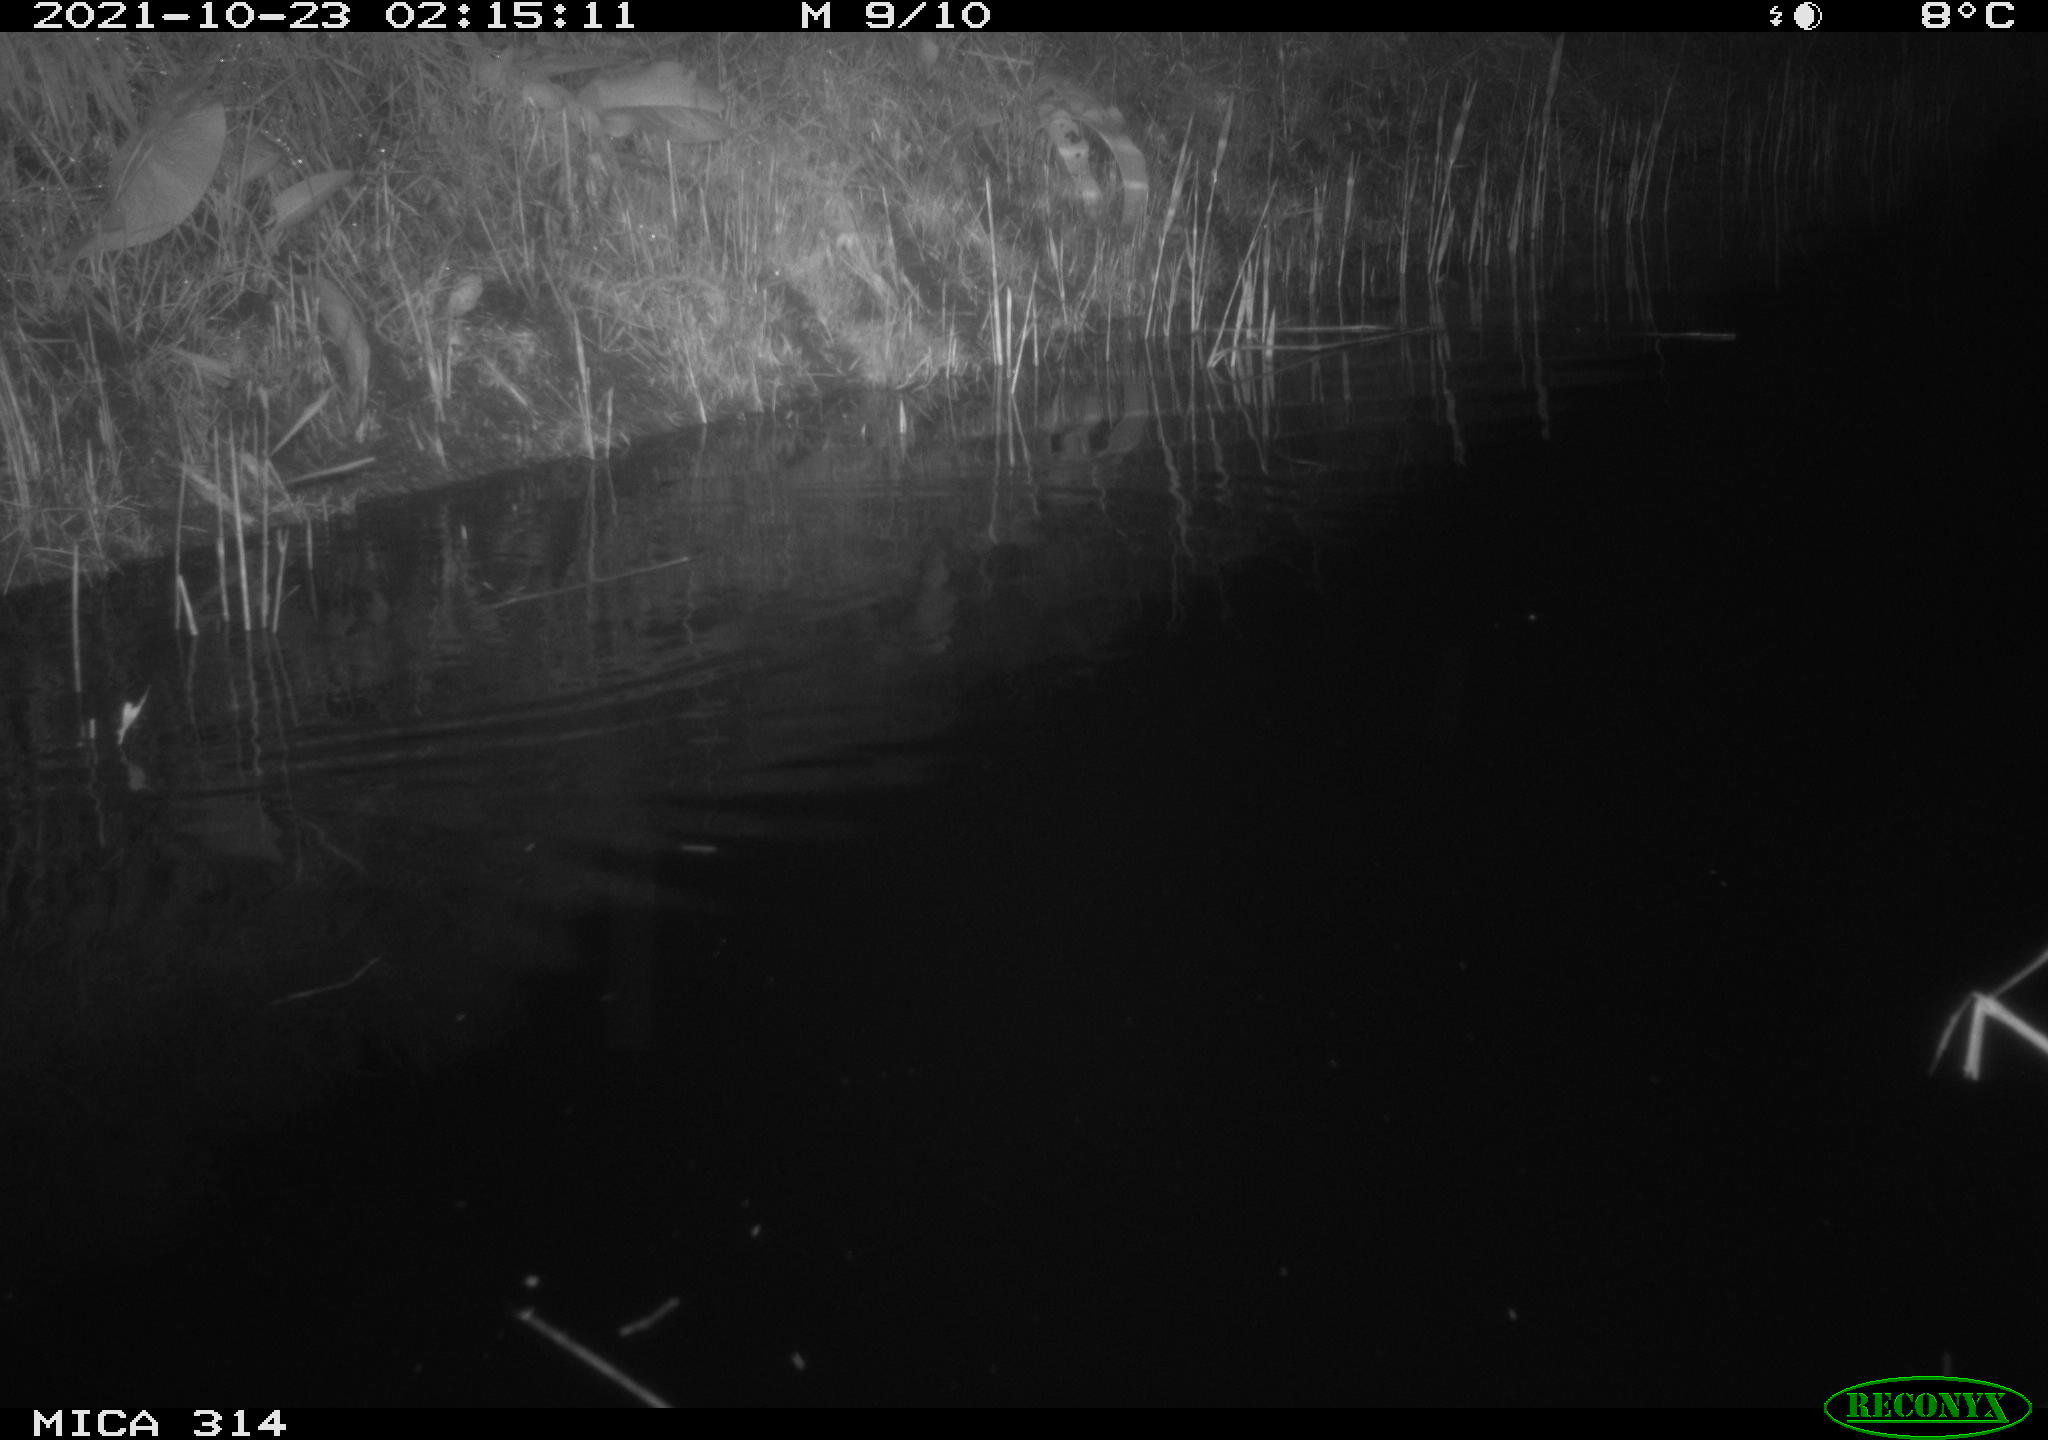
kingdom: Animalia
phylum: Chordata
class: Mammalia
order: Rodentia
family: Muridae
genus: Rattus
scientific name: Rattus norvegicus
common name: Brown rat
